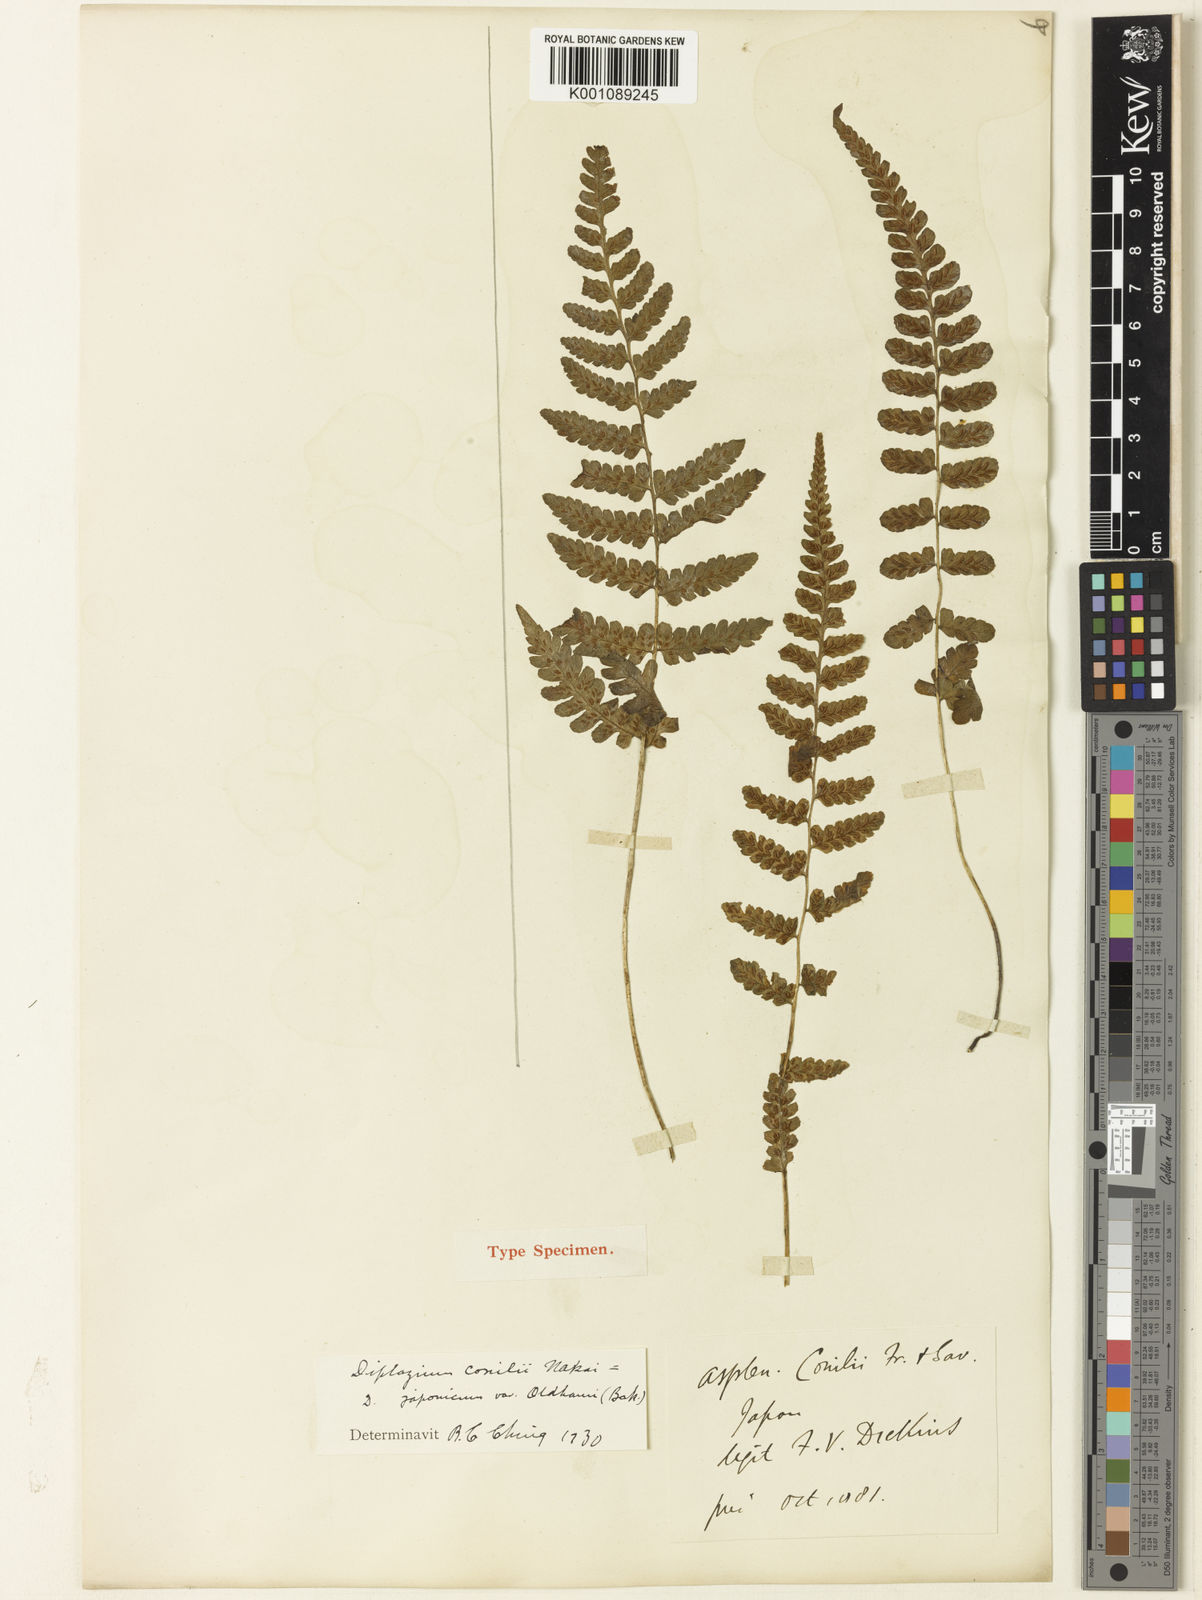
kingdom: Plantae
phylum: Tracheophyta
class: Polypodiopsida
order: Polypodiales
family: Athyriaceae
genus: Deparia
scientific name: Deparia conilii
